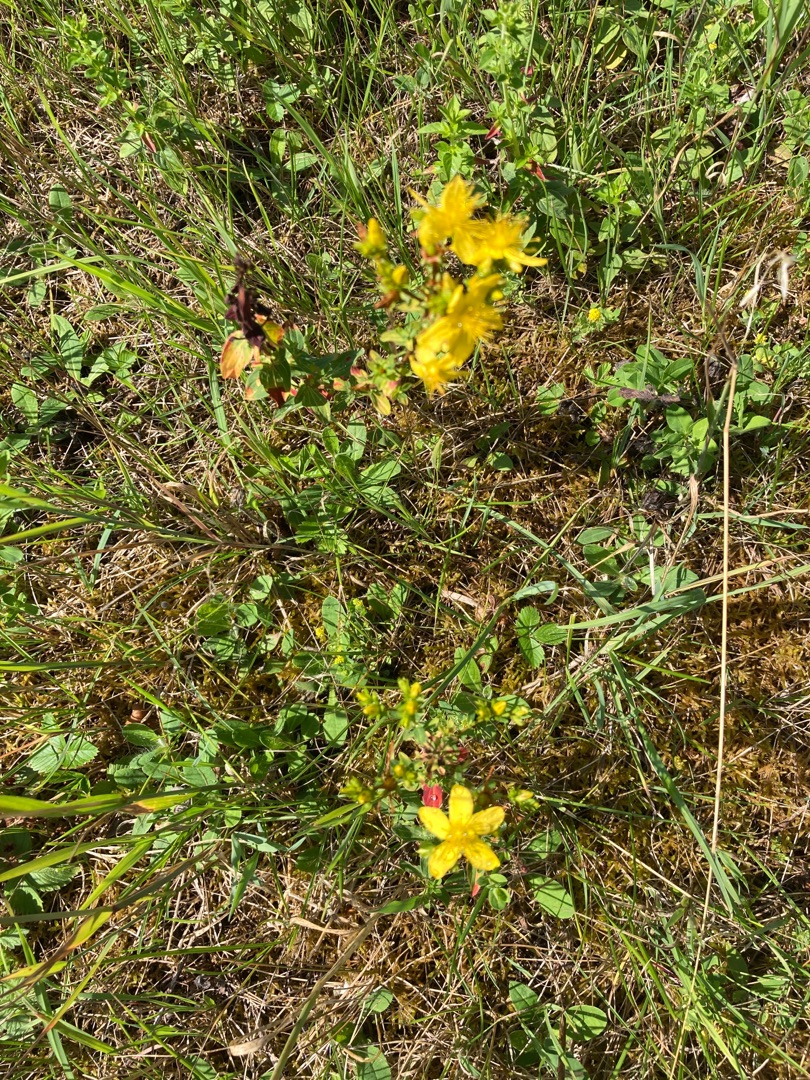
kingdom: Plantae
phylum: Tracheophyta
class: Magnoliopsida
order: Malpighiales
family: Hypericaceae
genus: Hypericum
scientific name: Hypericum
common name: Perikonslægten
